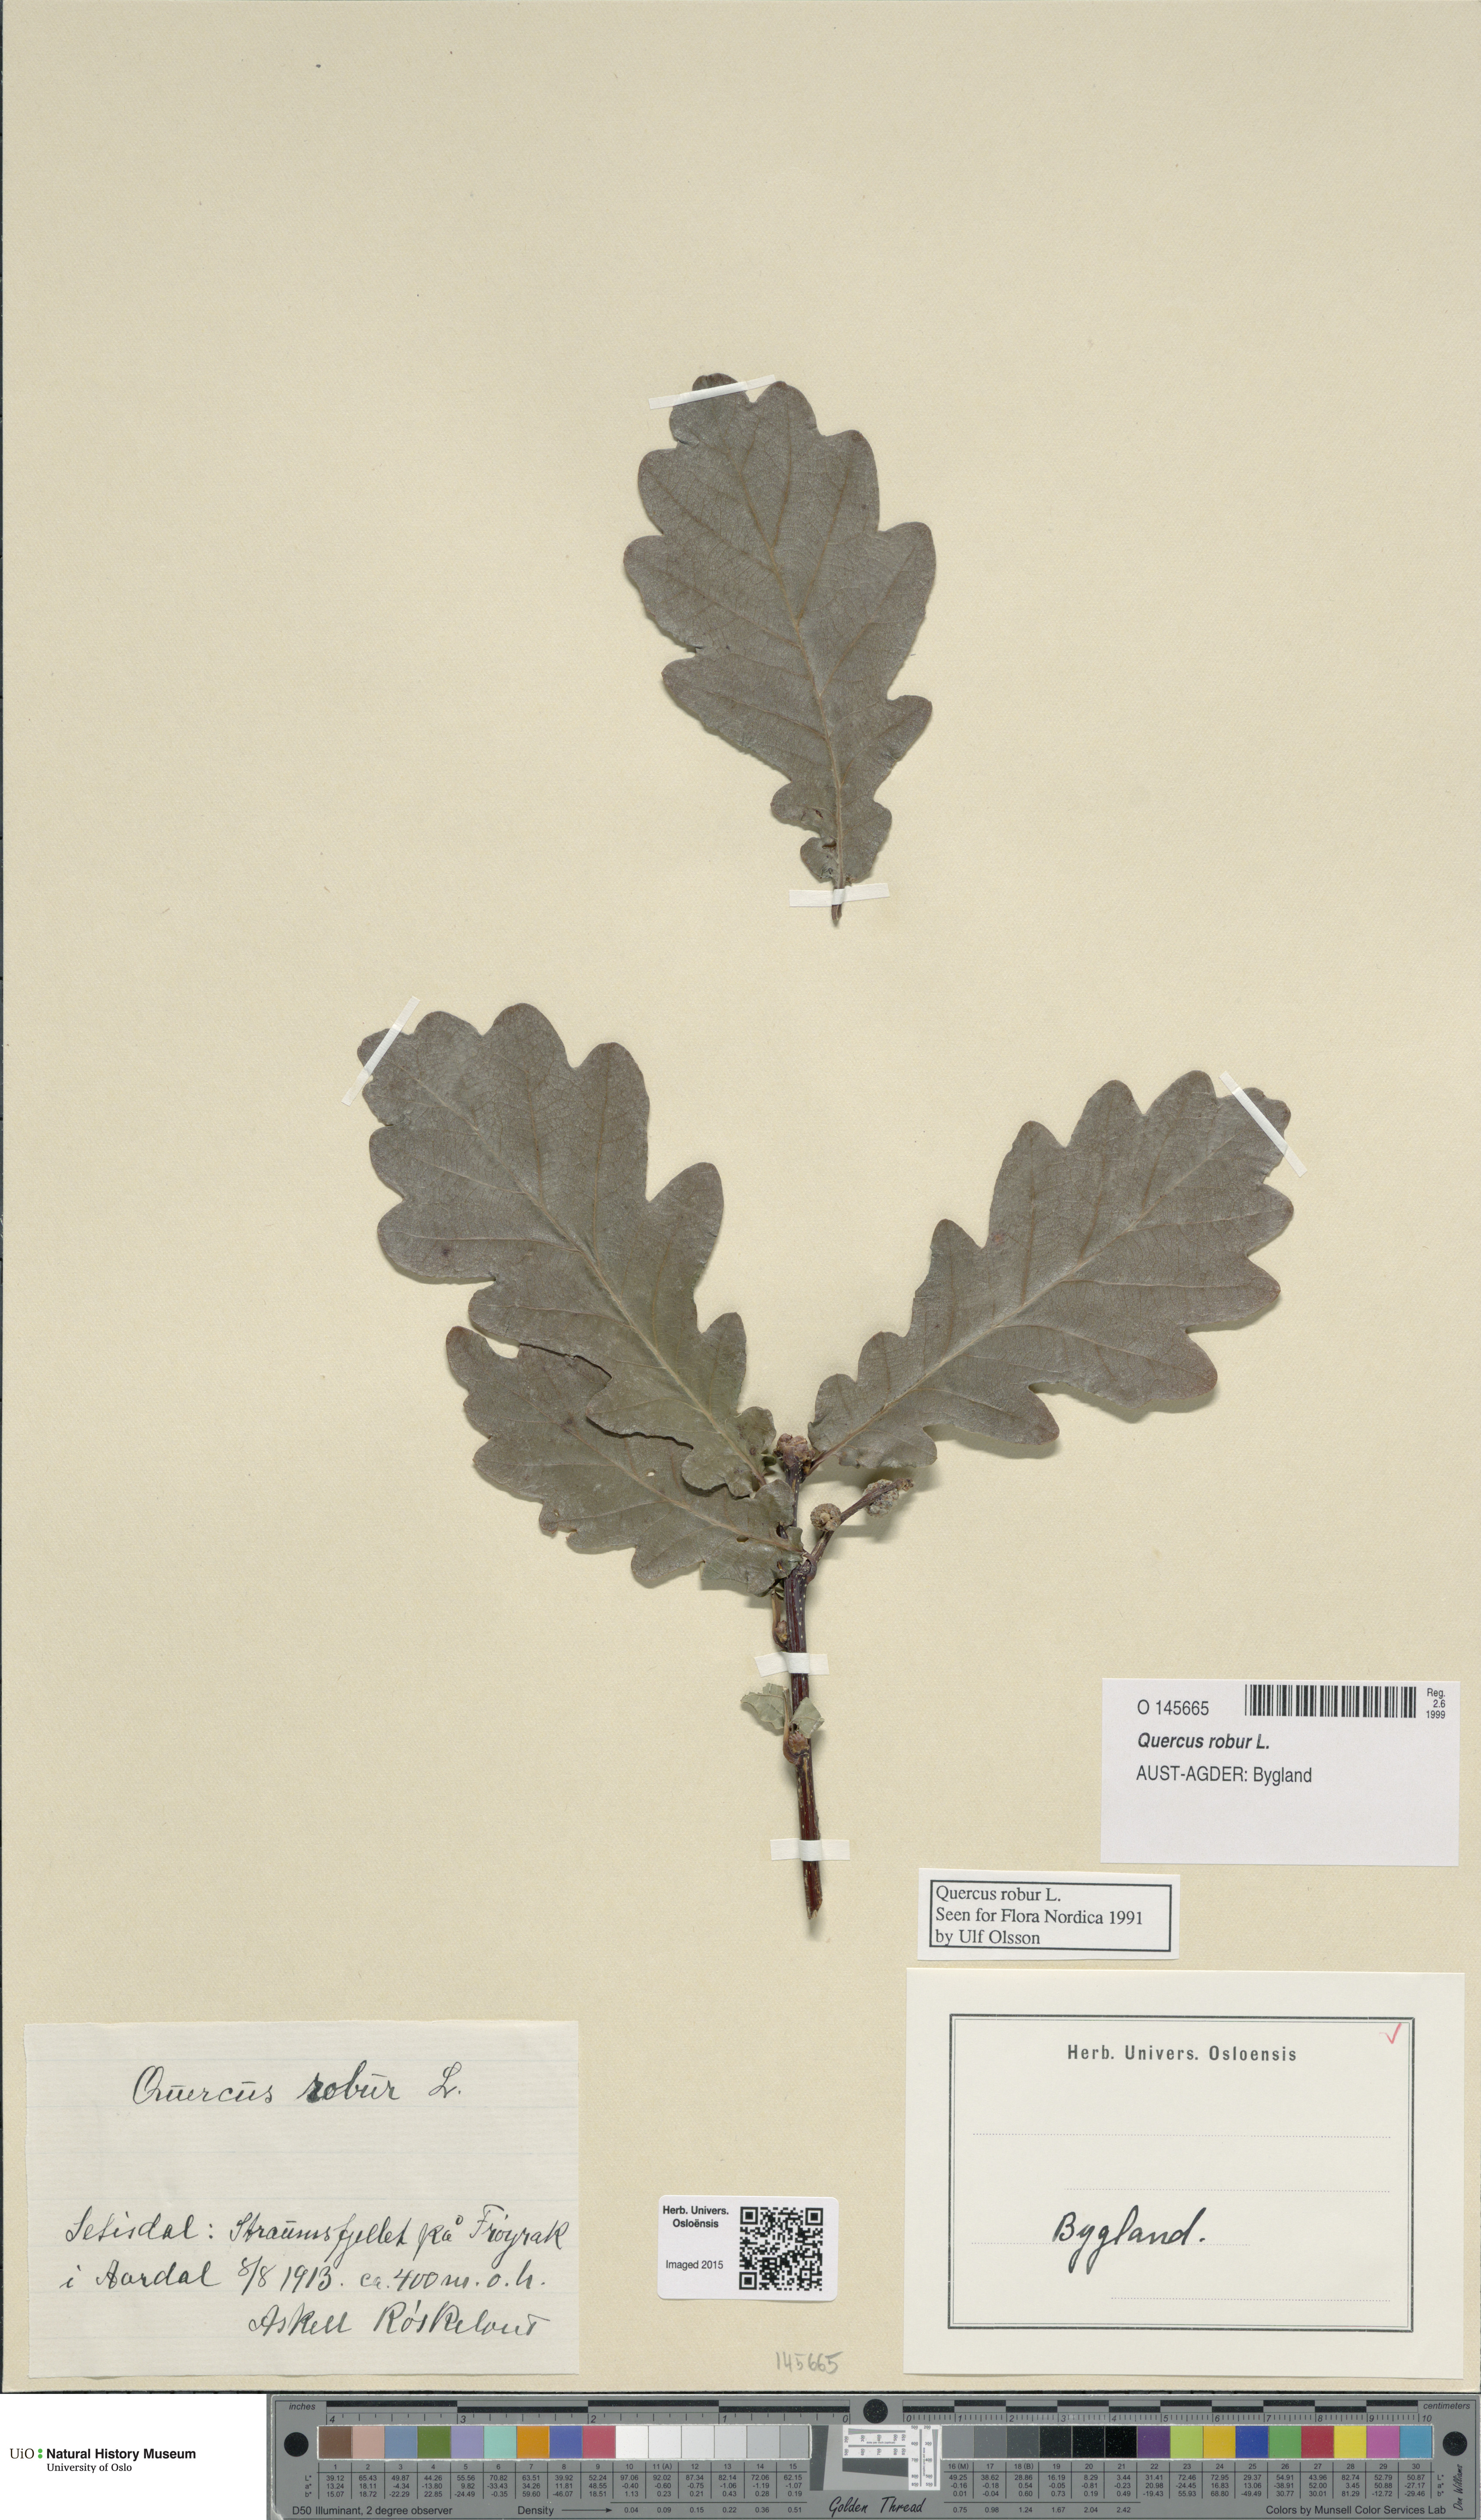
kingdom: Plantae
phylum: Tracheophyta
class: Magnoliopsida
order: Fagales
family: Fagaceae
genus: Quercus
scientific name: Quercus robur
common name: Pedunculate oak
